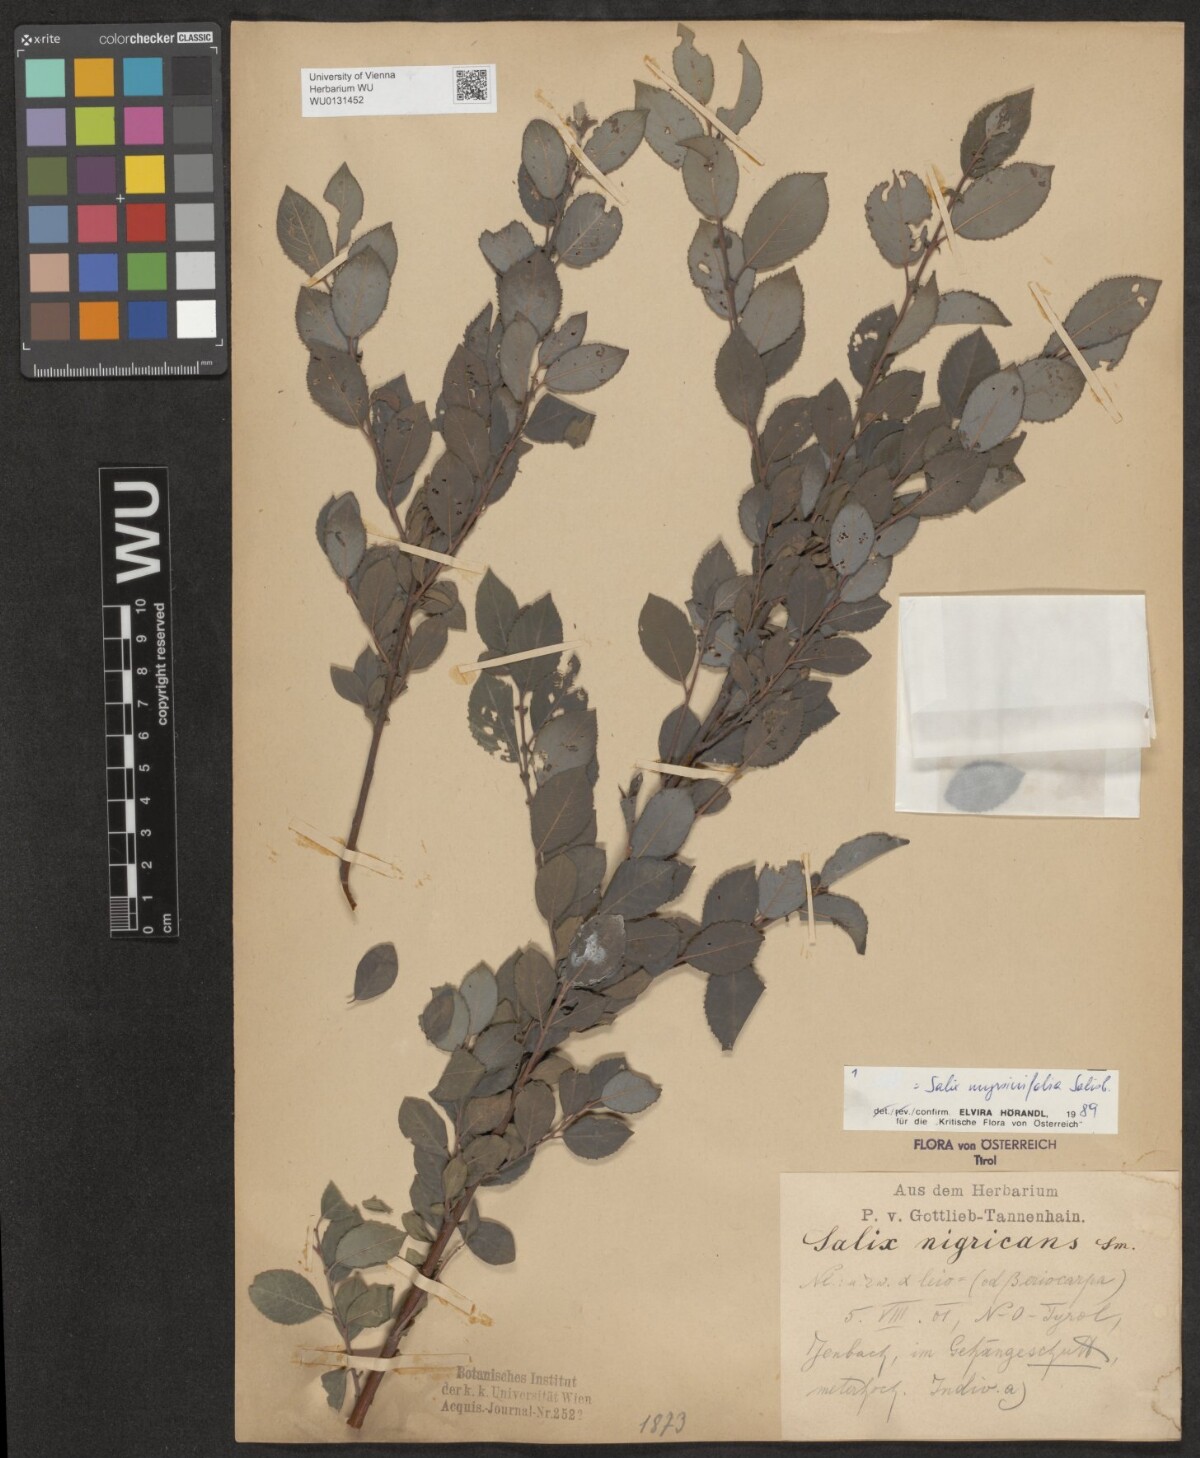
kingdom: Plantae
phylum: Tracheophyta
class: Magnoliopsida
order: Malpighiales
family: Salicaceae
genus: Salix
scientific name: Salix myrsinifolia
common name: Dark-leaved willow
